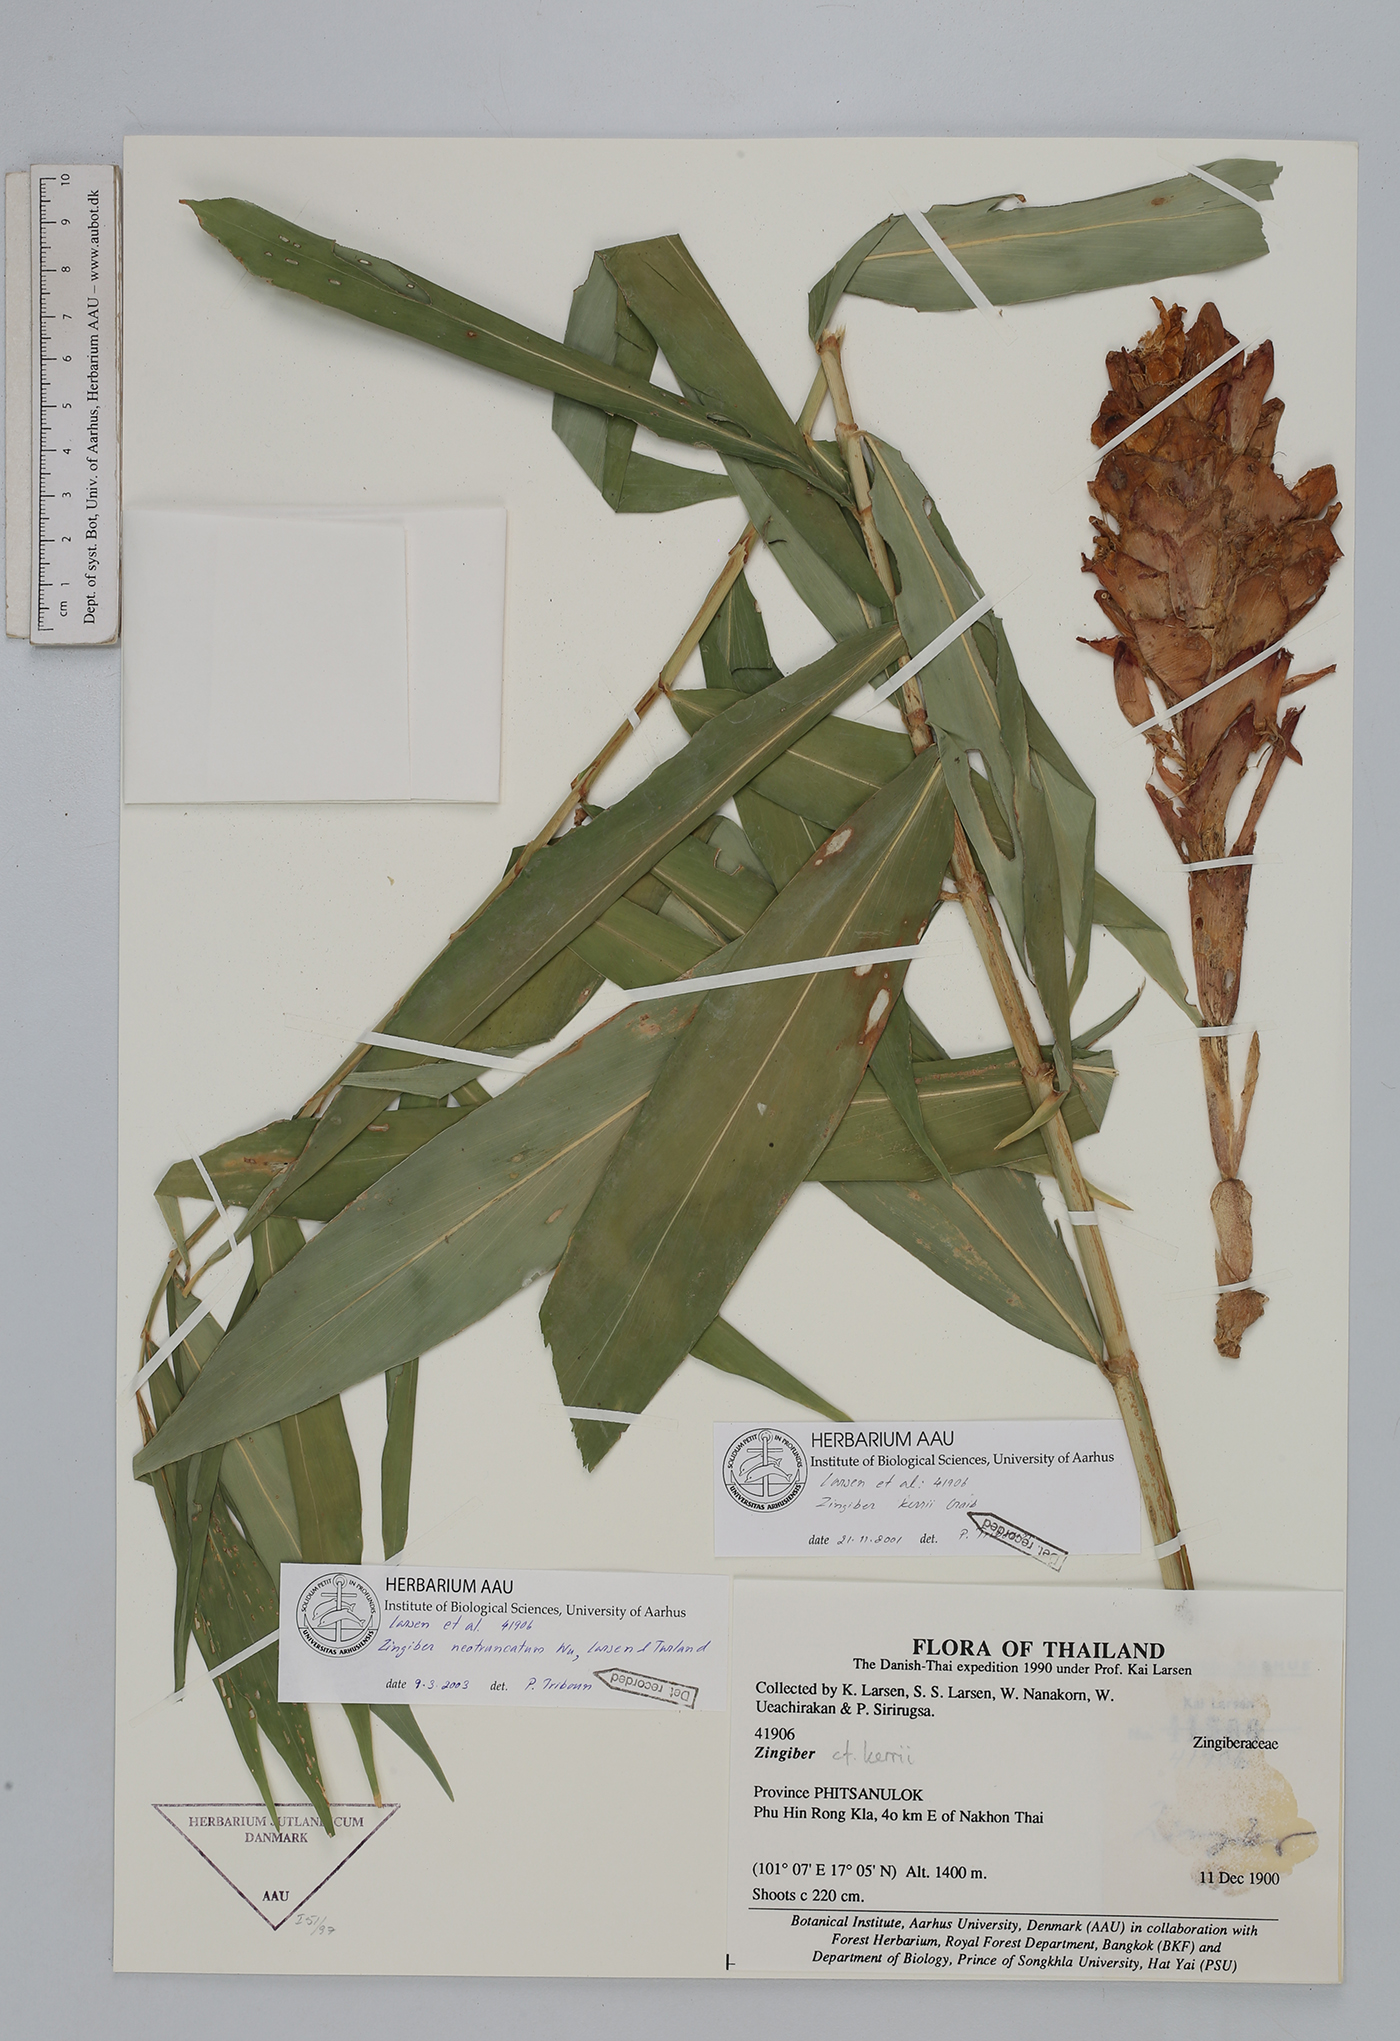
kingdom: Plantae
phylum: Tracheophyta
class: Liliopsida
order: Zingiberales
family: Zingiberaceae
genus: Zingiber
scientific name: Zingiber neotruncatum
